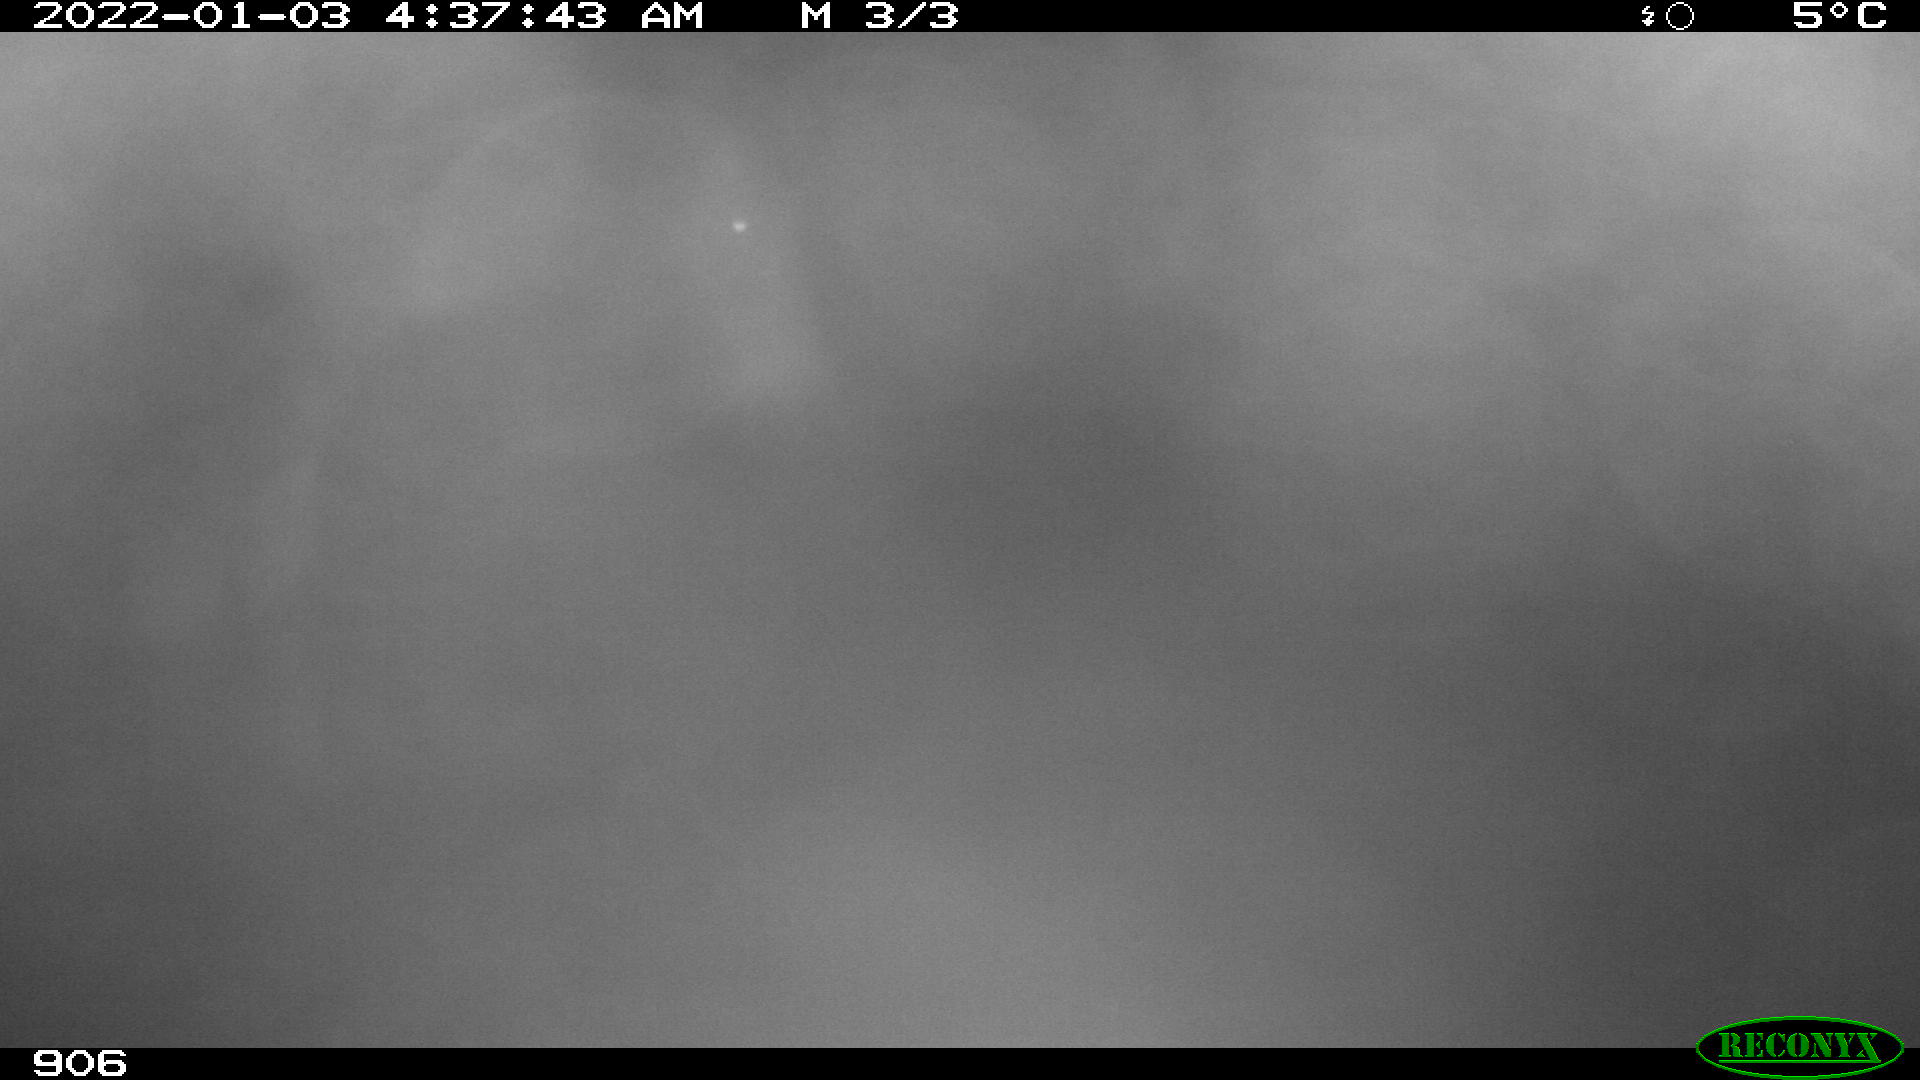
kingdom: Animalia
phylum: Chordata
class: Mammalia
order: Perissodactyla
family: Equidae
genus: Equus
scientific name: Equus caballus
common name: Horse
